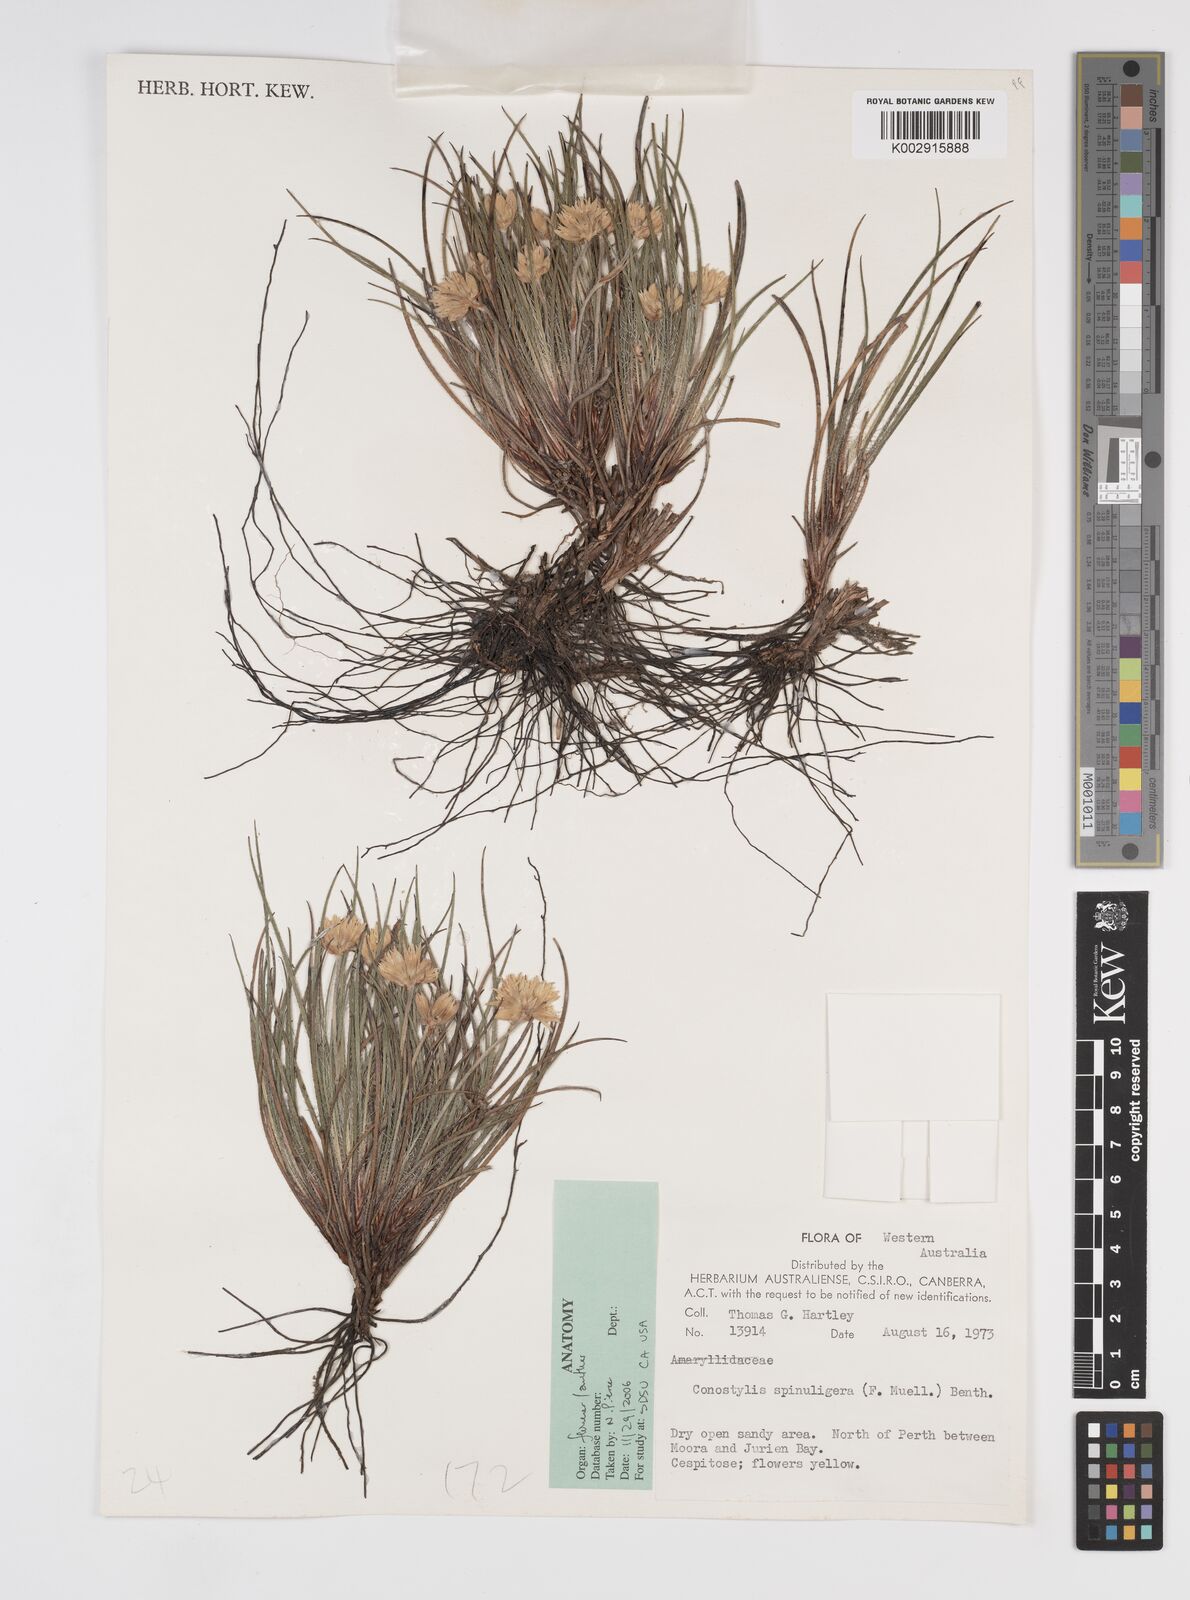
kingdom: Plantae
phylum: Tracheophyta
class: Liliopsida
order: Commelinales
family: Haemodoraceae
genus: Conostylis
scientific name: Conostylis aculeata
